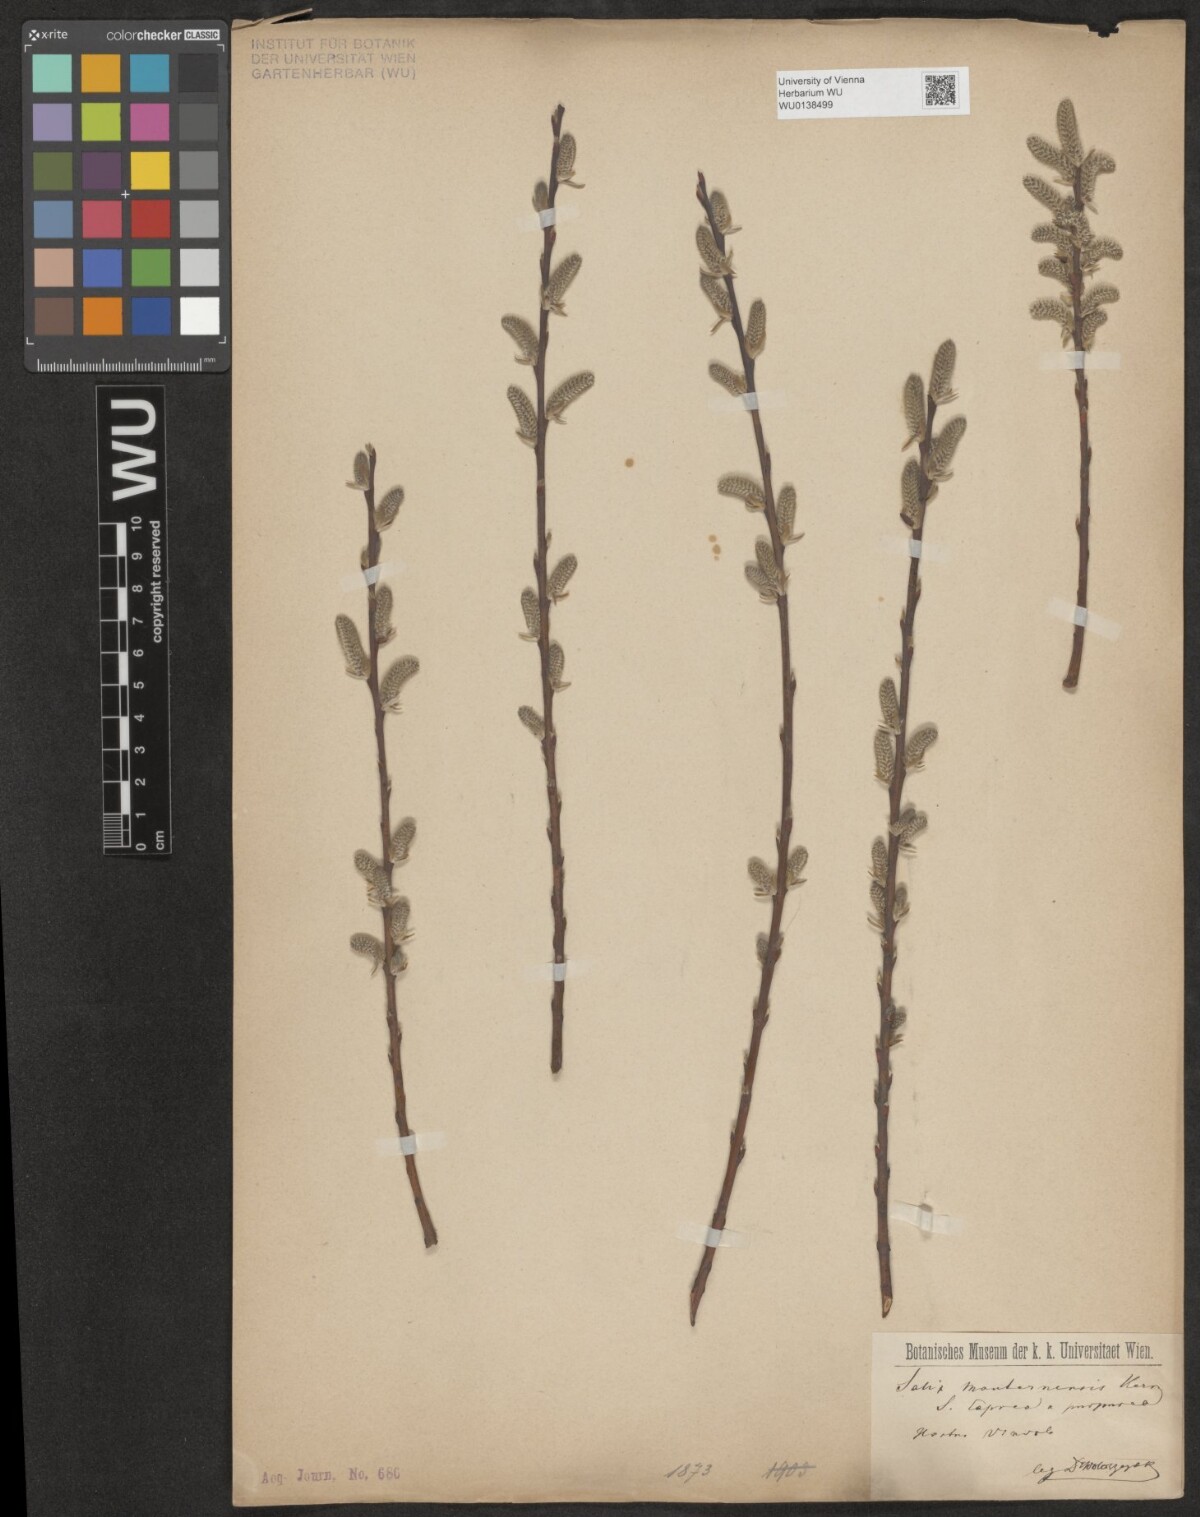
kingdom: Plantae
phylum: Tracheophyta
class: Magnoliopsida
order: Malpighiales
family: Salicaceae
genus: Salix
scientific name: Salix wimmeriana
